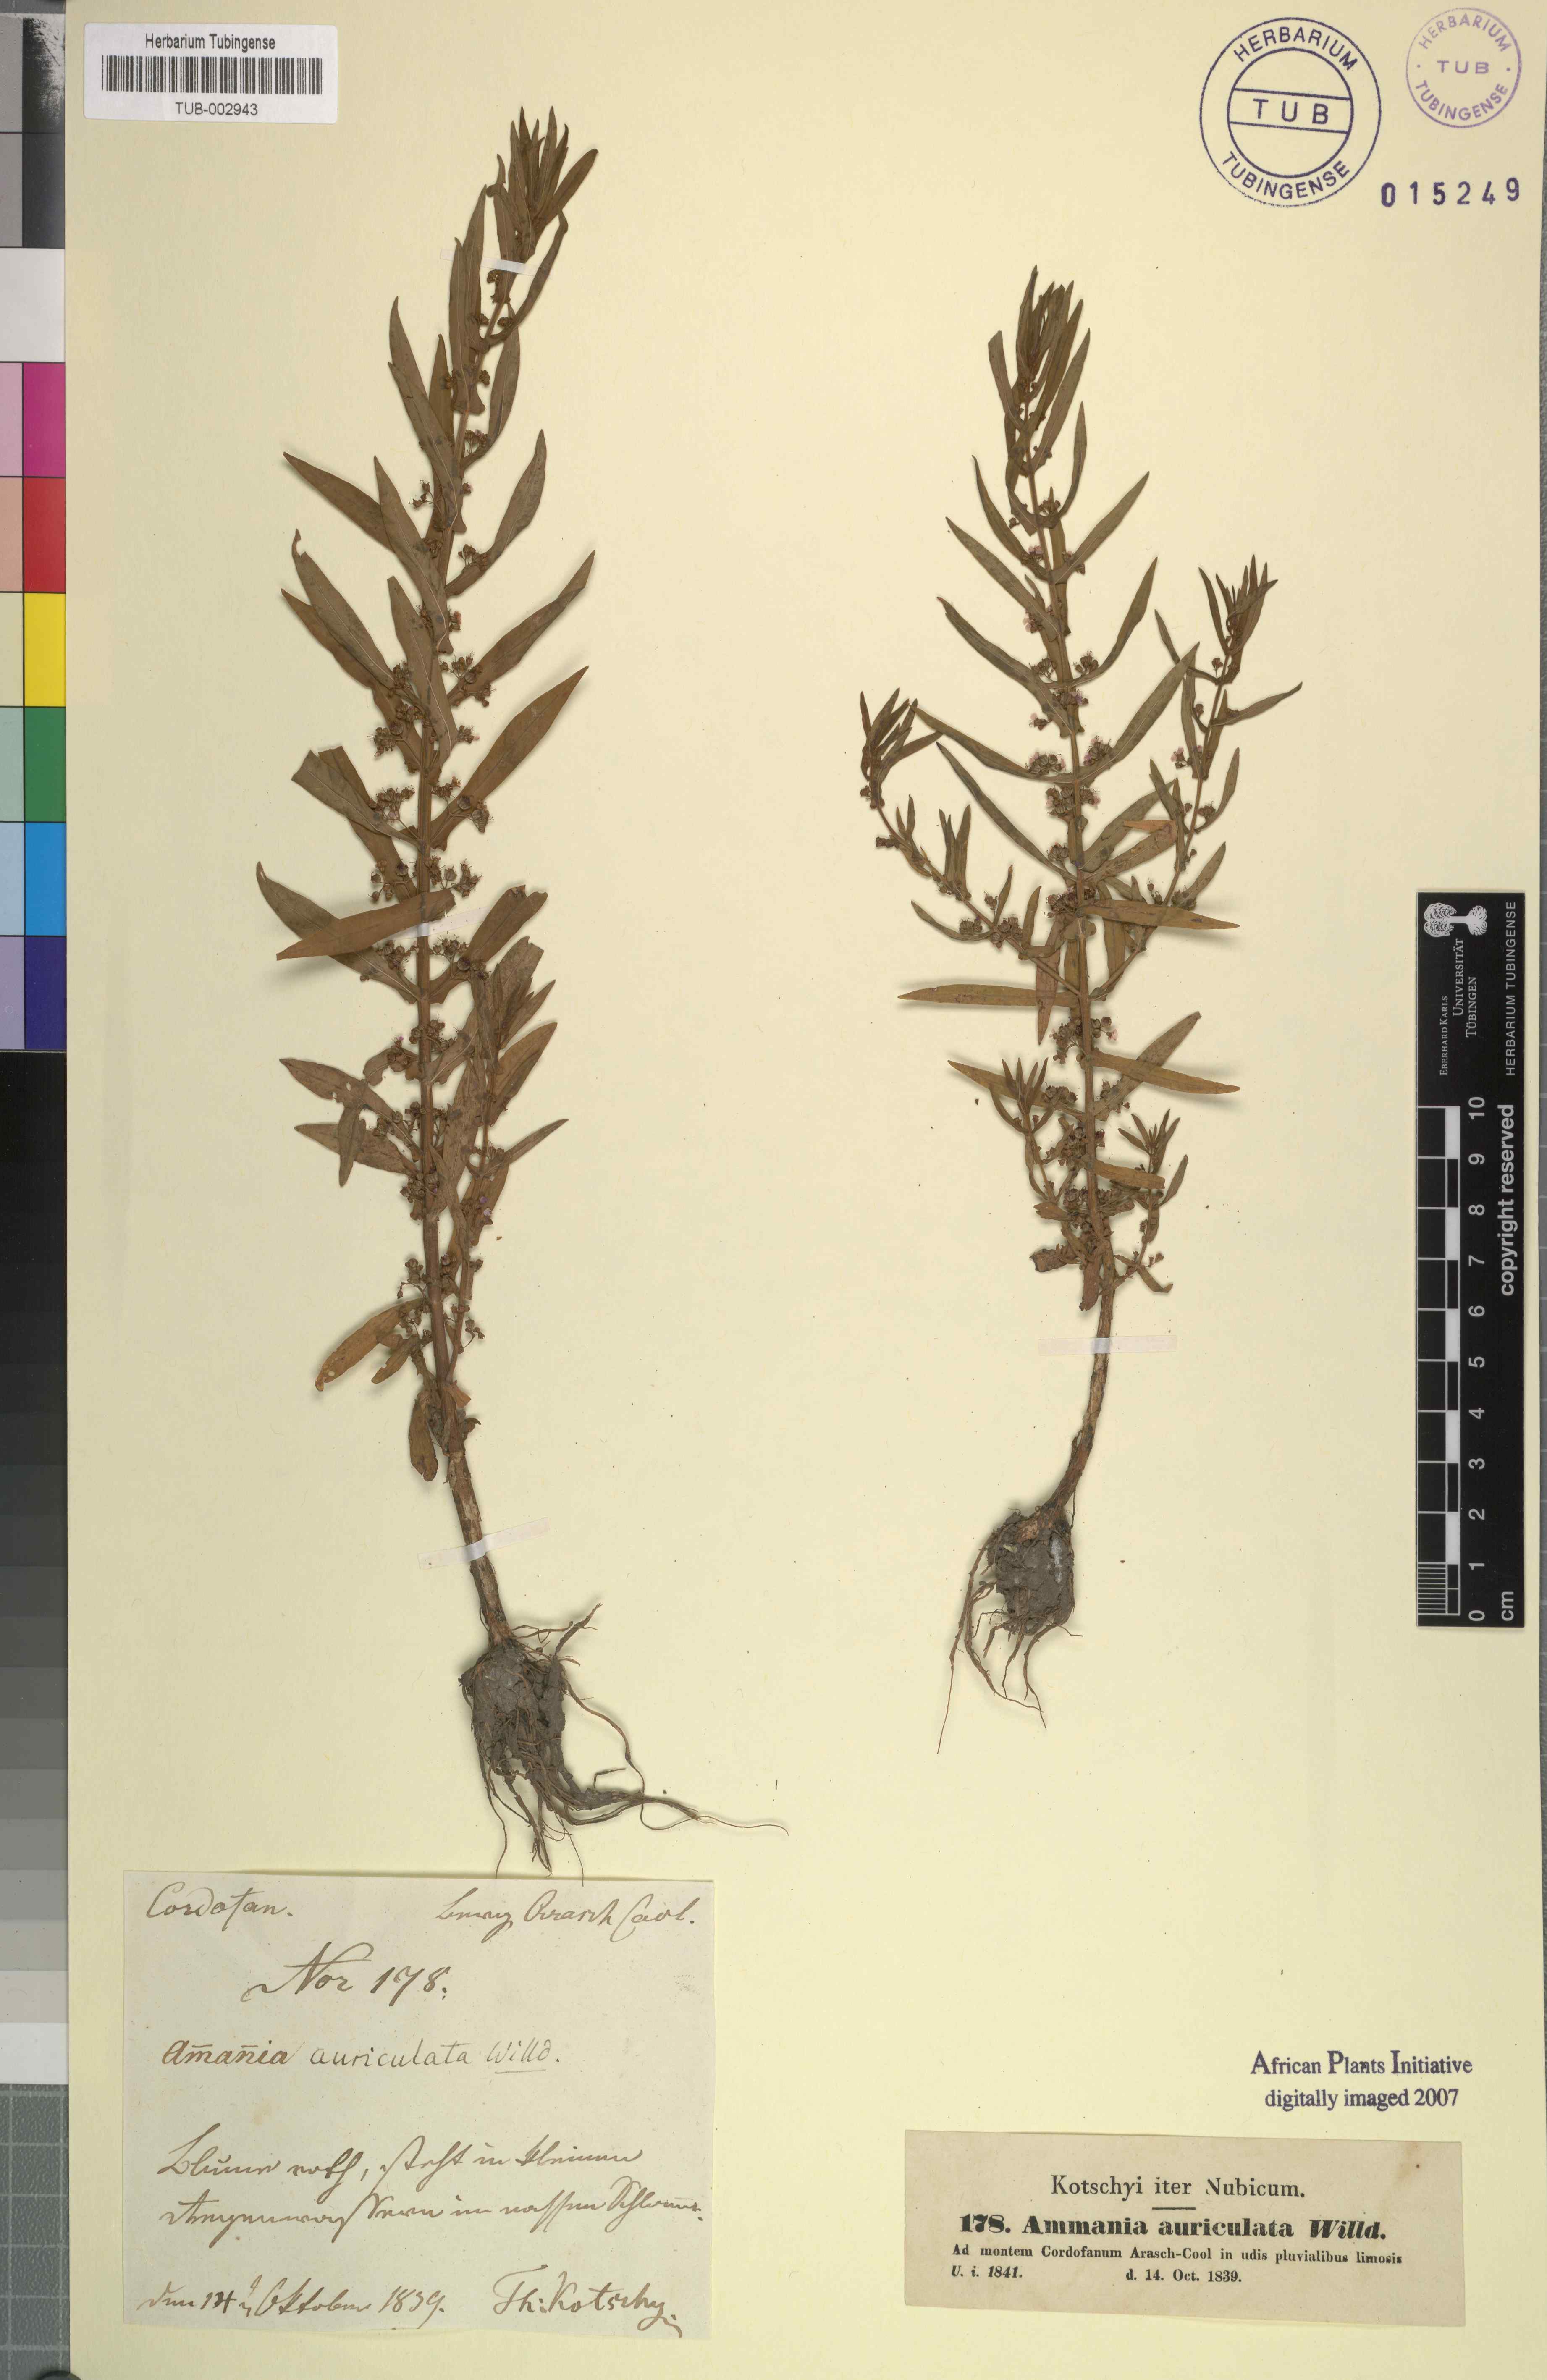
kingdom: Plantae
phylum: Tracheophyta
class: Magnoliopsida
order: Myrtales
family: Lythraceae
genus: Ammannia
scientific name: Ammannia auriculata
